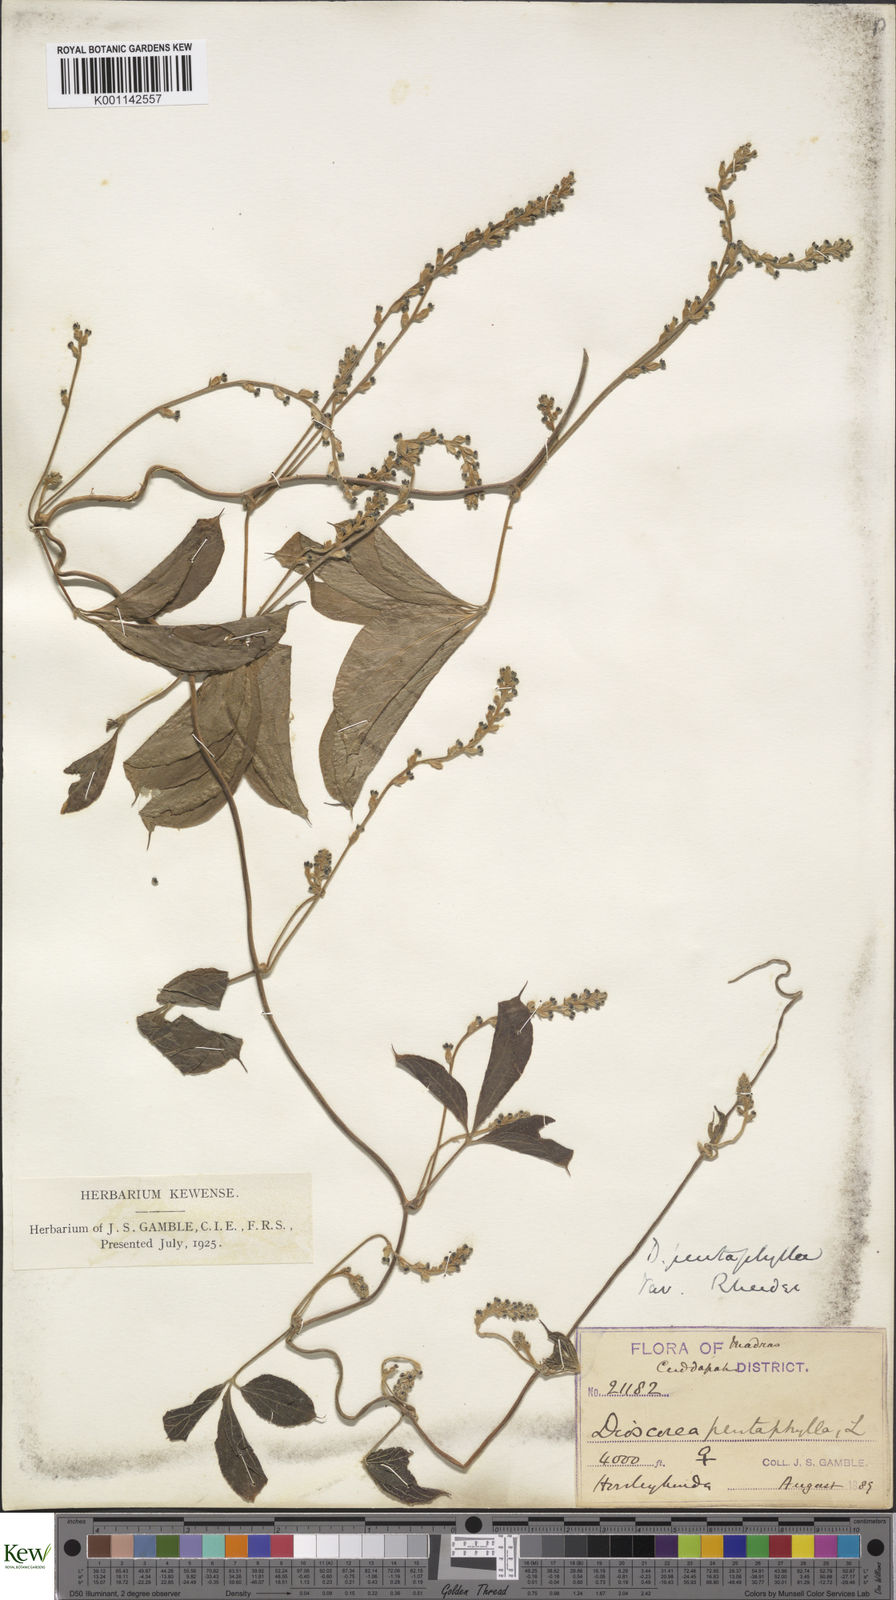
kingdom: Plantae
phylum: Tracheophyta
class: Liliopsida
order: Dioscoreales
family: Dioscoreaceae
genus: Dioscorea
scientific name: Dioscorea pentaphylla
